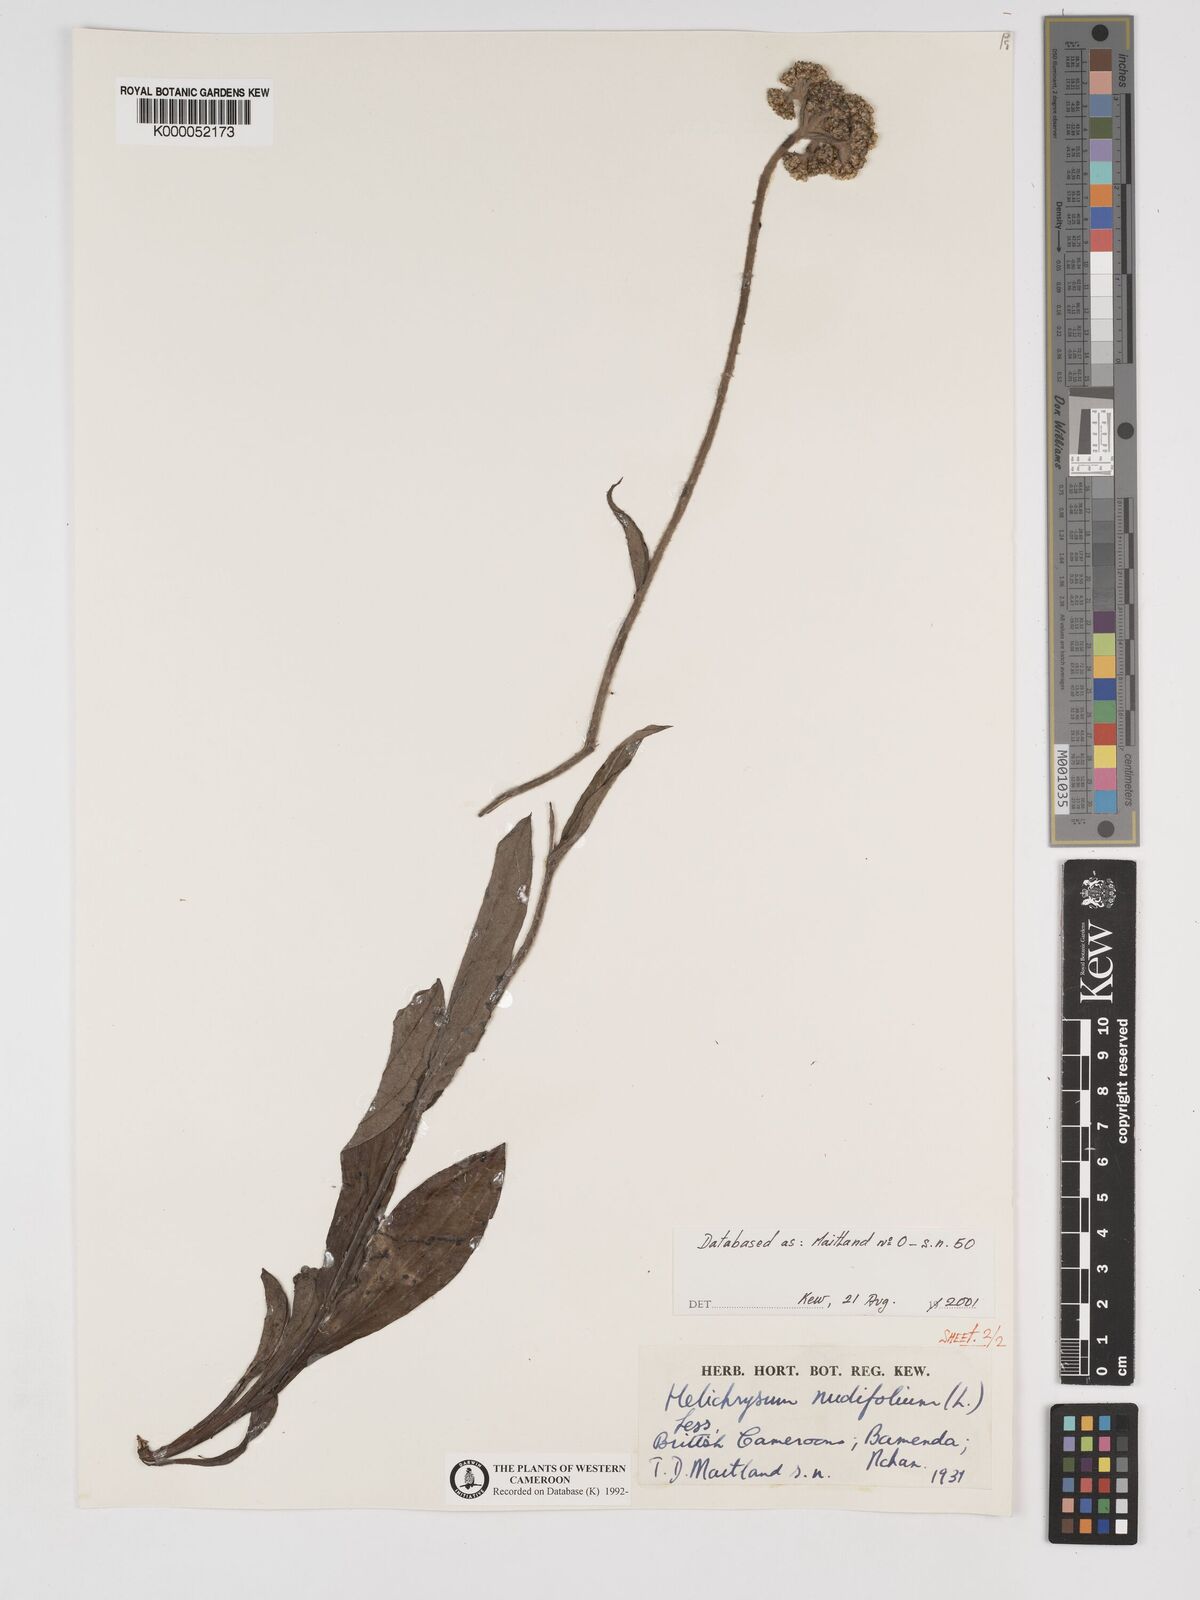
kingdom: Plantae
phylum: Tracheophyta
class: Magnoliopsida
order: Asterales
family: Asteraceae
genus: Helichrysum
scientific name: Helichrysum nudifolium
